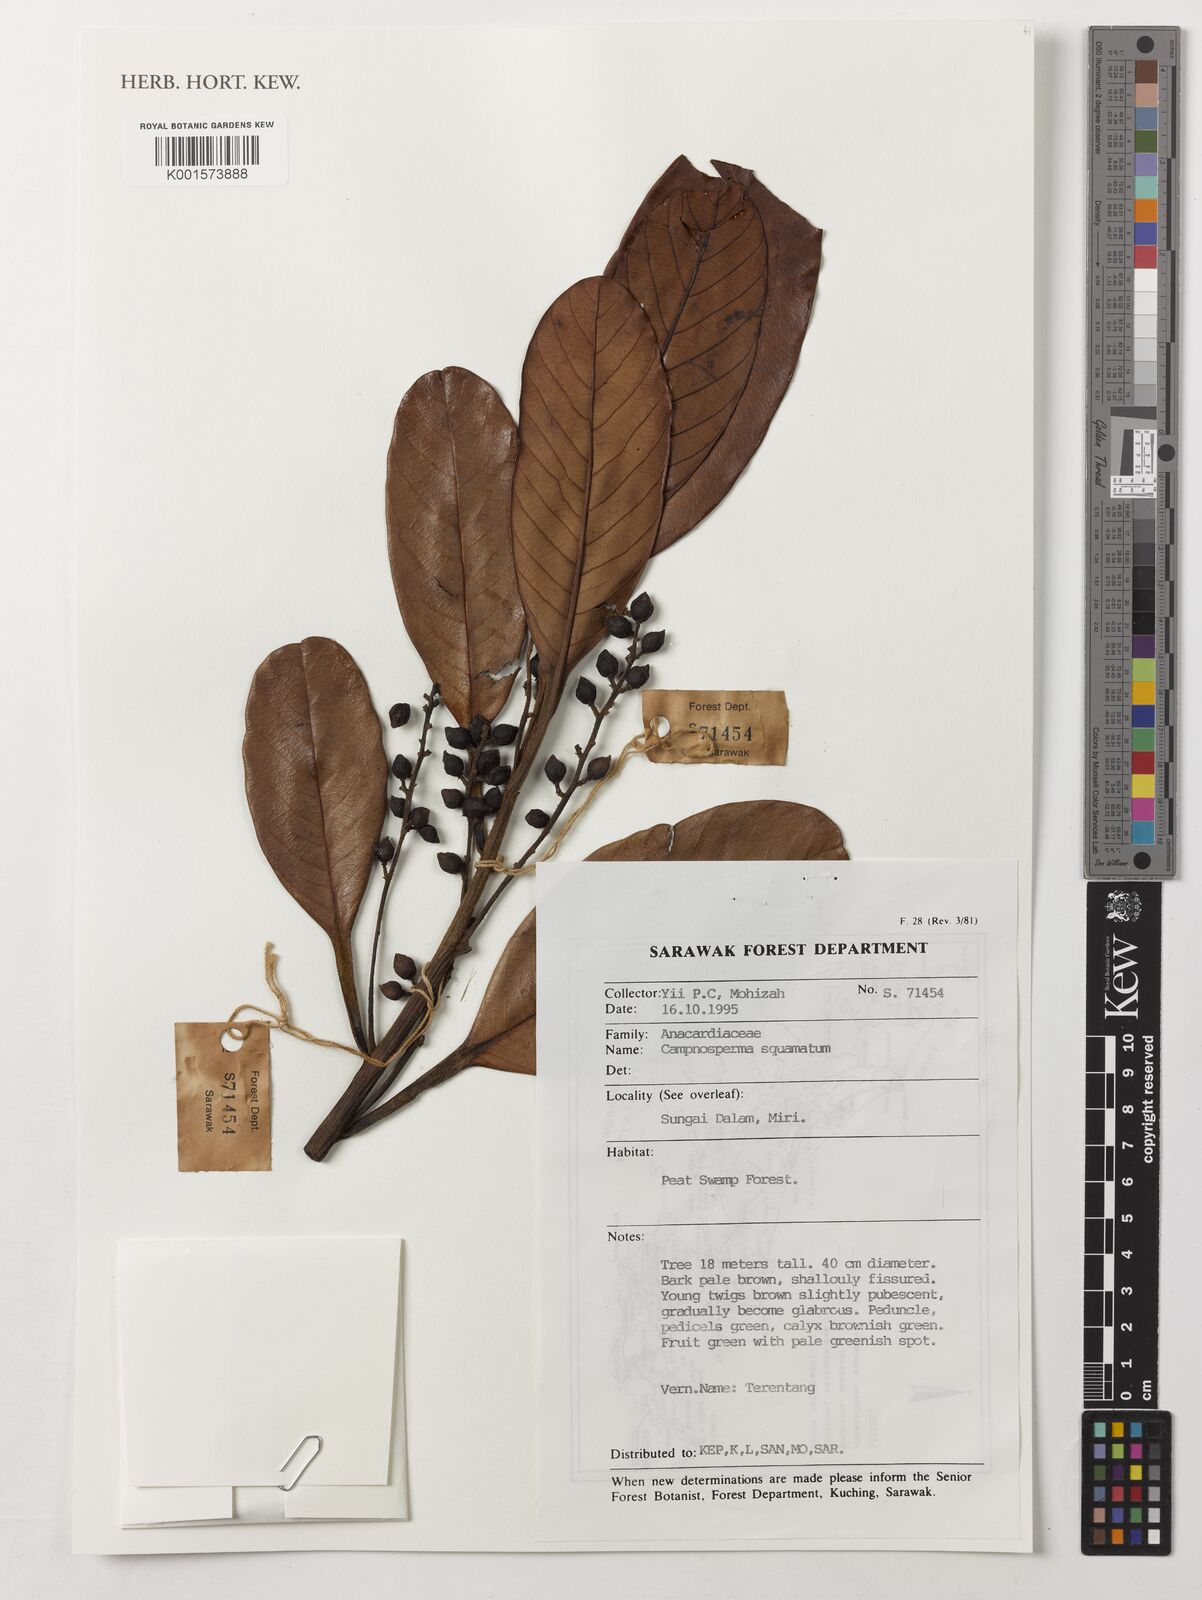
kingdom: Plantae
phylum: Tracheophyta
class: Magnoliopsida
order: Sapindales
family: Anacardiaceae
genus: Campnosperma
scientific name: Campnosperma squamatum
